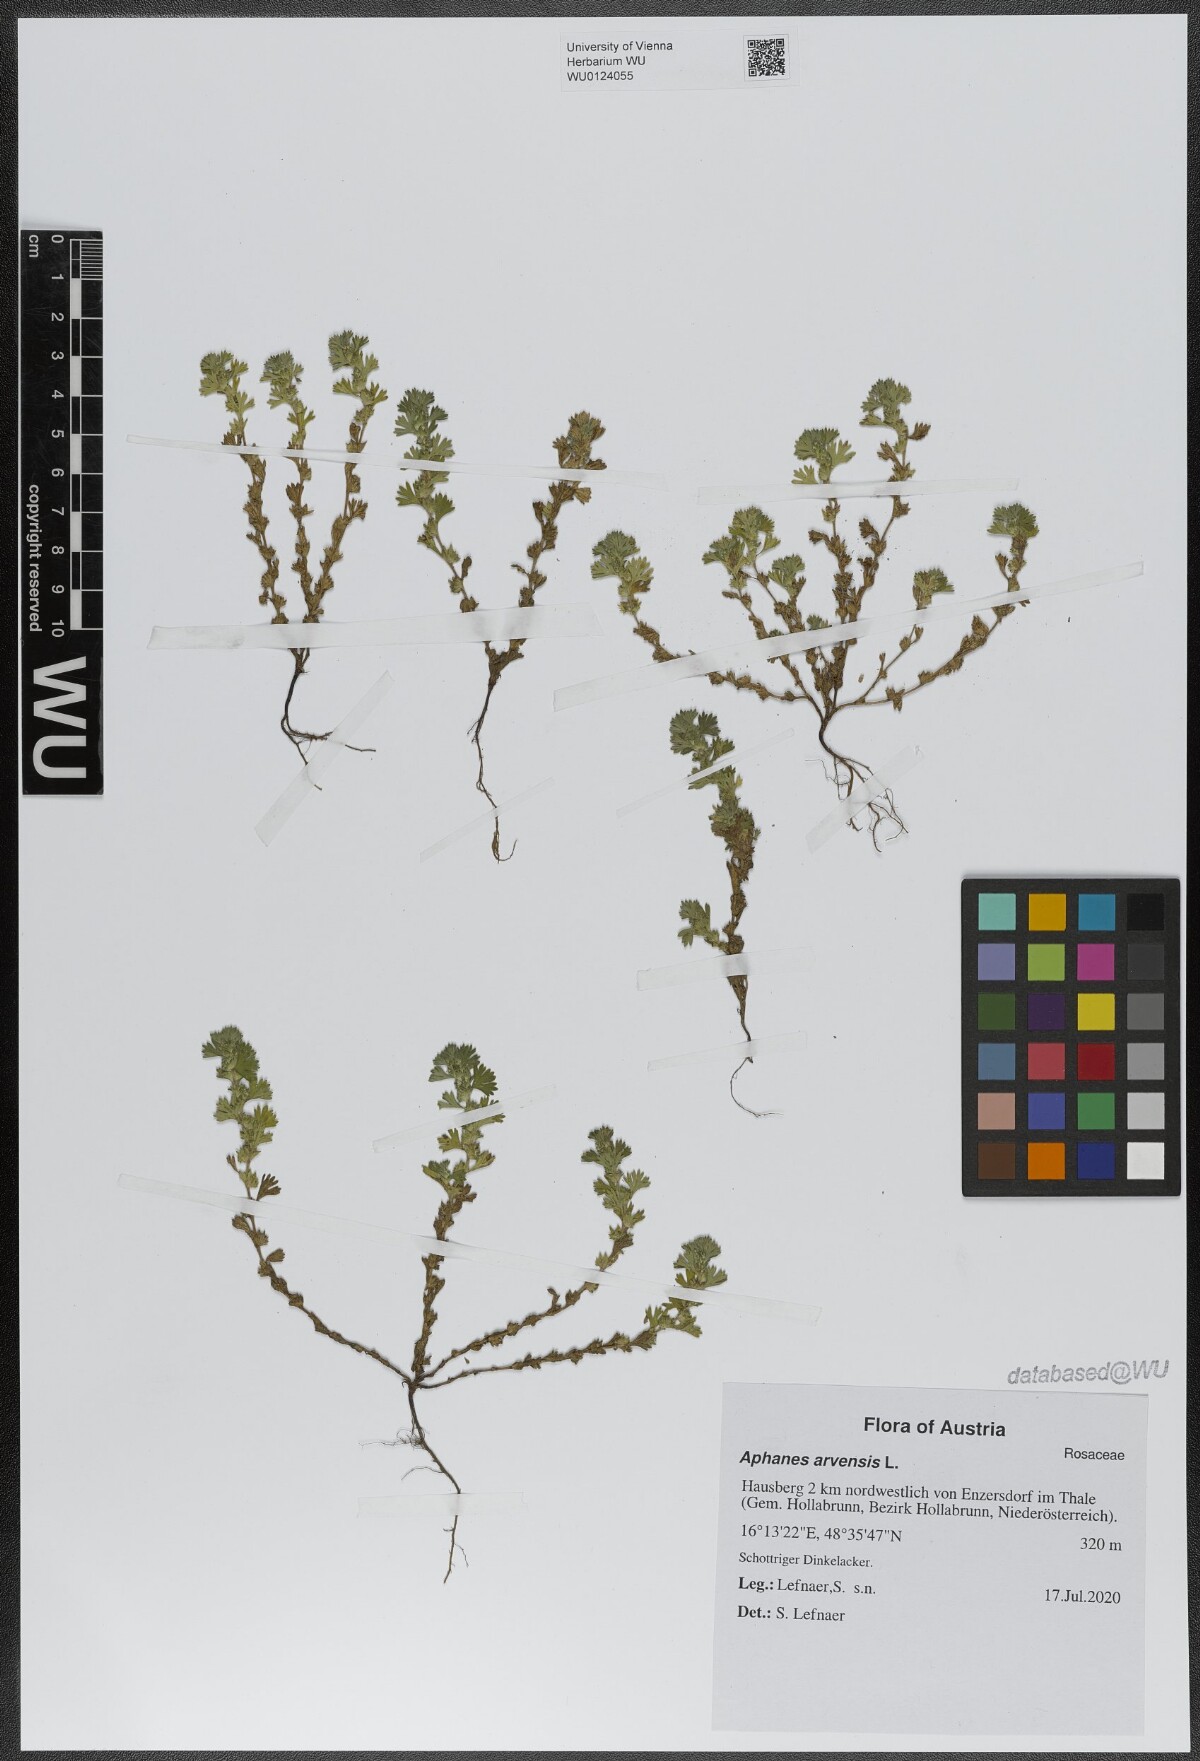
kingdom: Plantae
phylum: Tracheophyta
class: Magnoliopsida
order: Rosales
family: Rosaceae
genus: Aphanes
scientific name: Aphanes arvensis
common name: Parsley-piert
